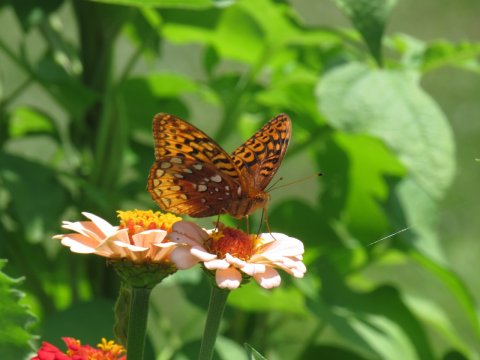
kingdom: Animalia
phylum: Arthropoda
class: Insecta
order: Lepidoptera
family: Nymphalidae
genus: Speyeria
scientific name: Speyeria cybele
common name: Great Spangled Fritillary
